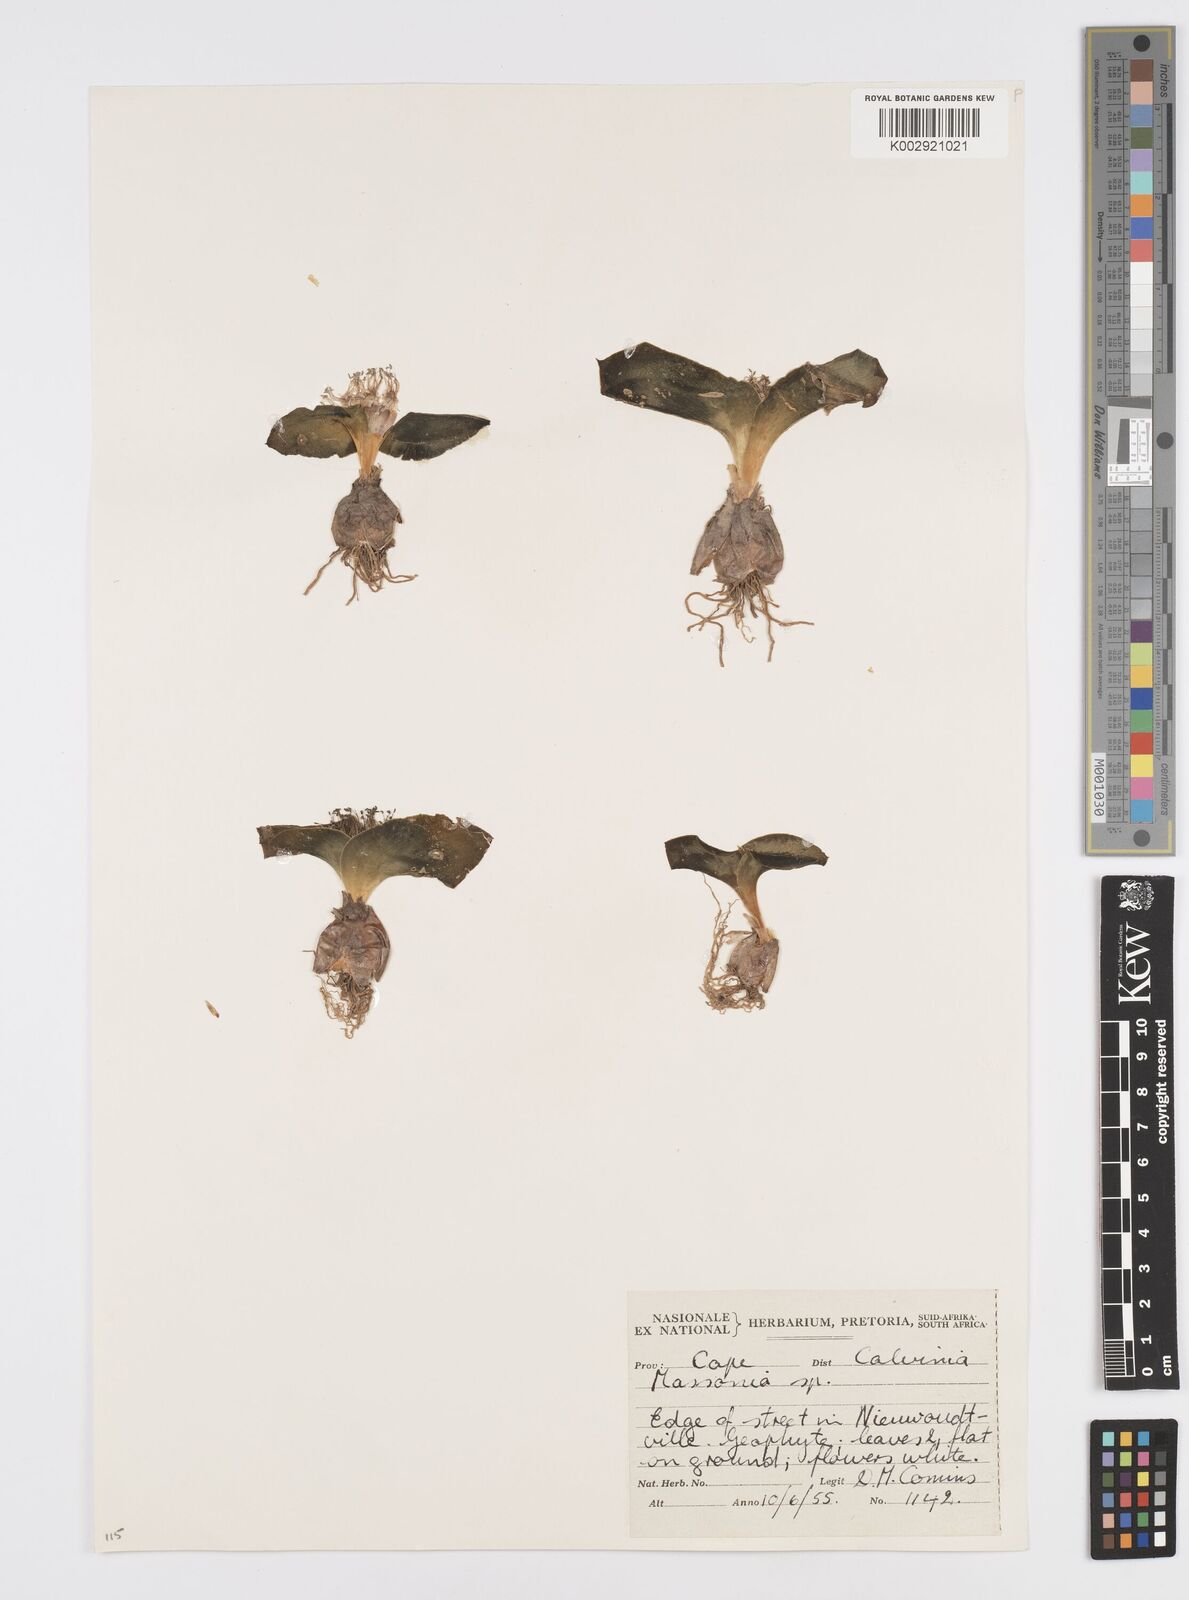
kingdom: Plantae
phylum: Tracheophyta
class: Liliopsida
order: Asparagales
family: Asparagaceae
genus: Massonia
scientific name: Massonia
